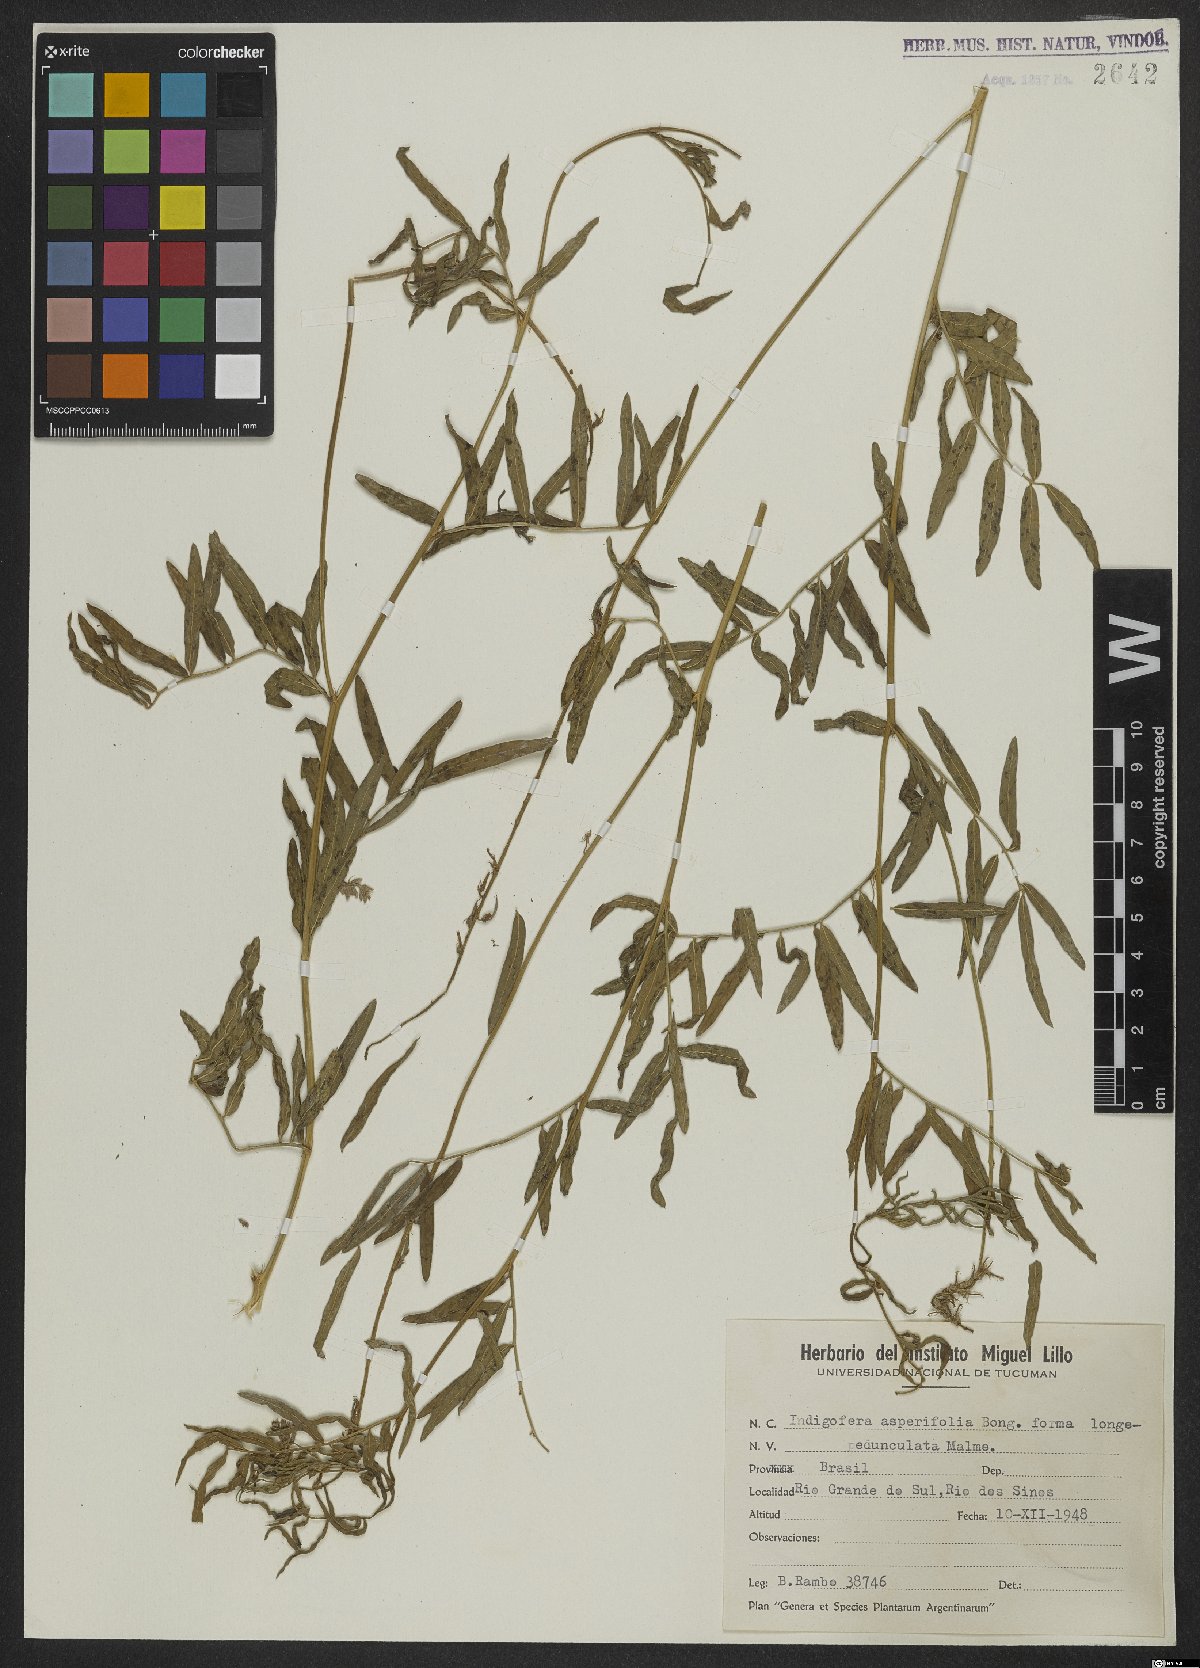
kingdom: Plantae
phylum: Tracheophyta
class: Magnoliopsida
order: Fabales
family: Fabaceae
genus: Indigofera
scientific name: Indigofera asperifolia
